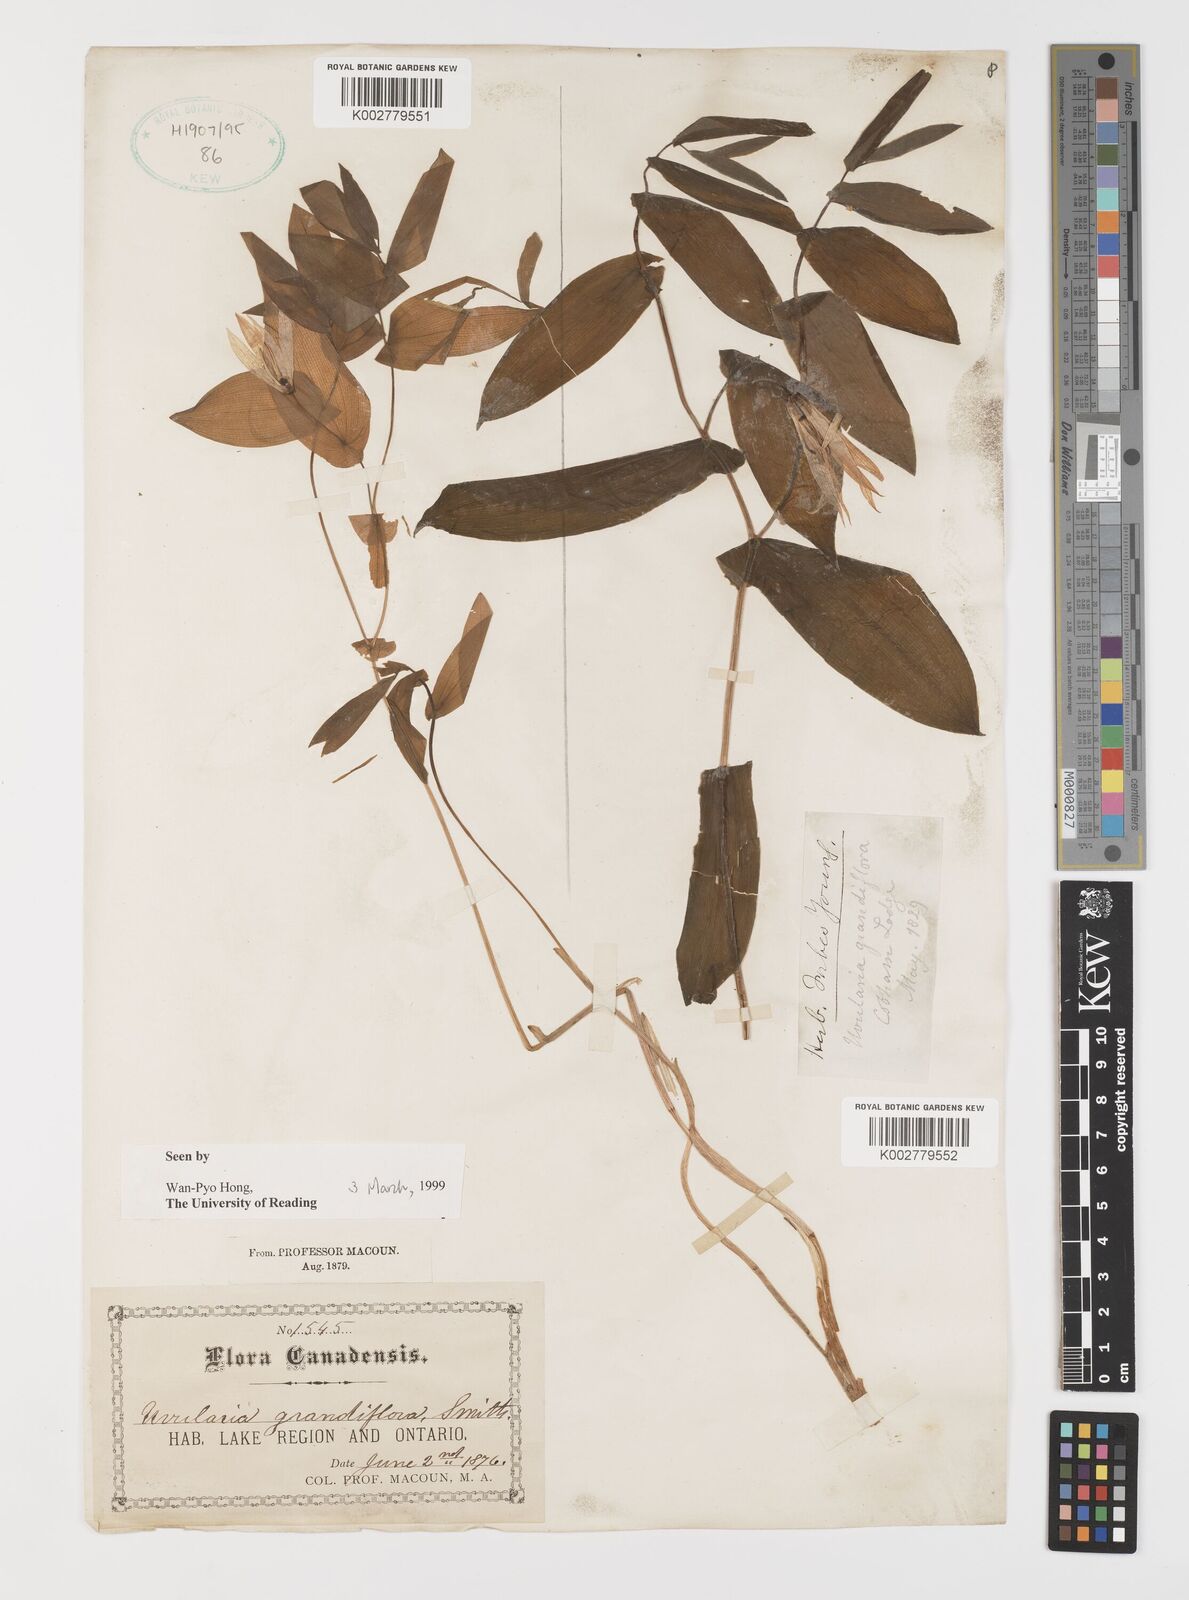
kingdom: Plantae
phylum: Tracheophyta
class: Liliopsida
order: Liliales
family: Colchicaceae
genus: Uvularia
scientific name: Uvularia grandiflora
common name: Bellwort
